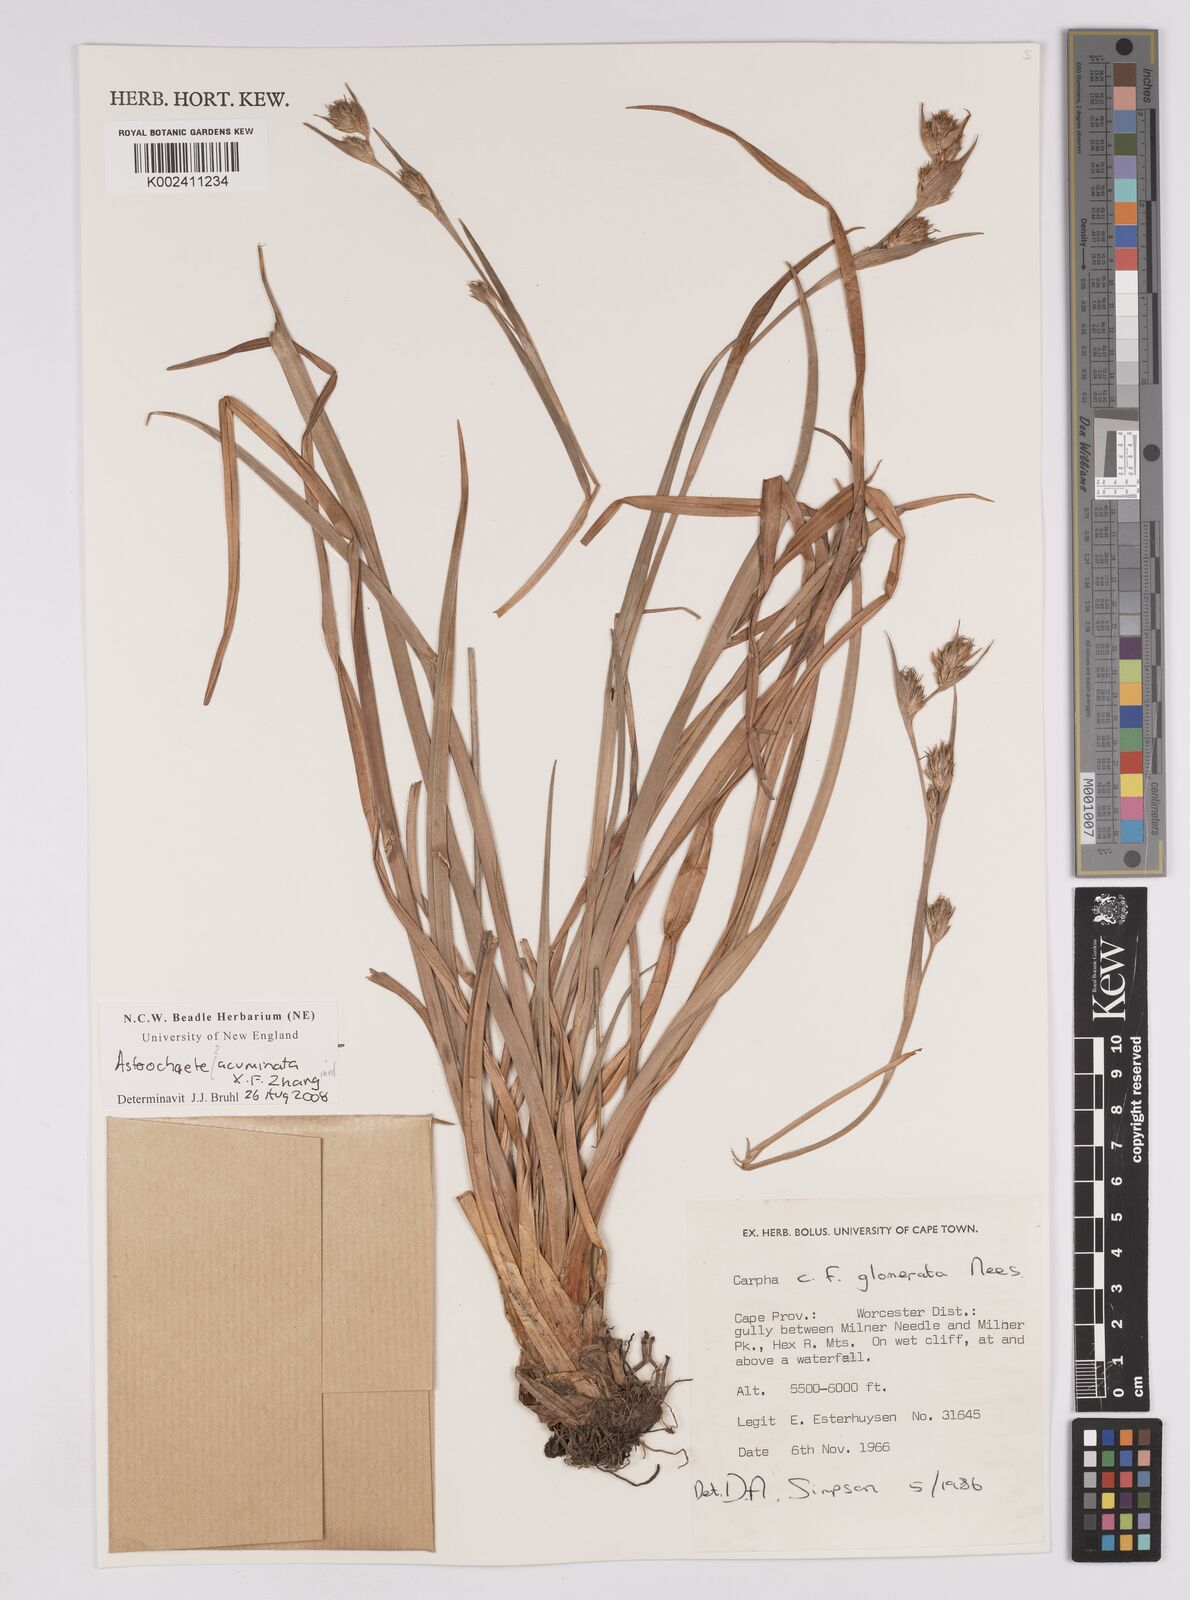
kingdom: Plantae
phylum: Tracheophyta
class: Liliopsida
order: Poales
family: Cyperaceae
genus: Carpha
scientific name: Carpha
